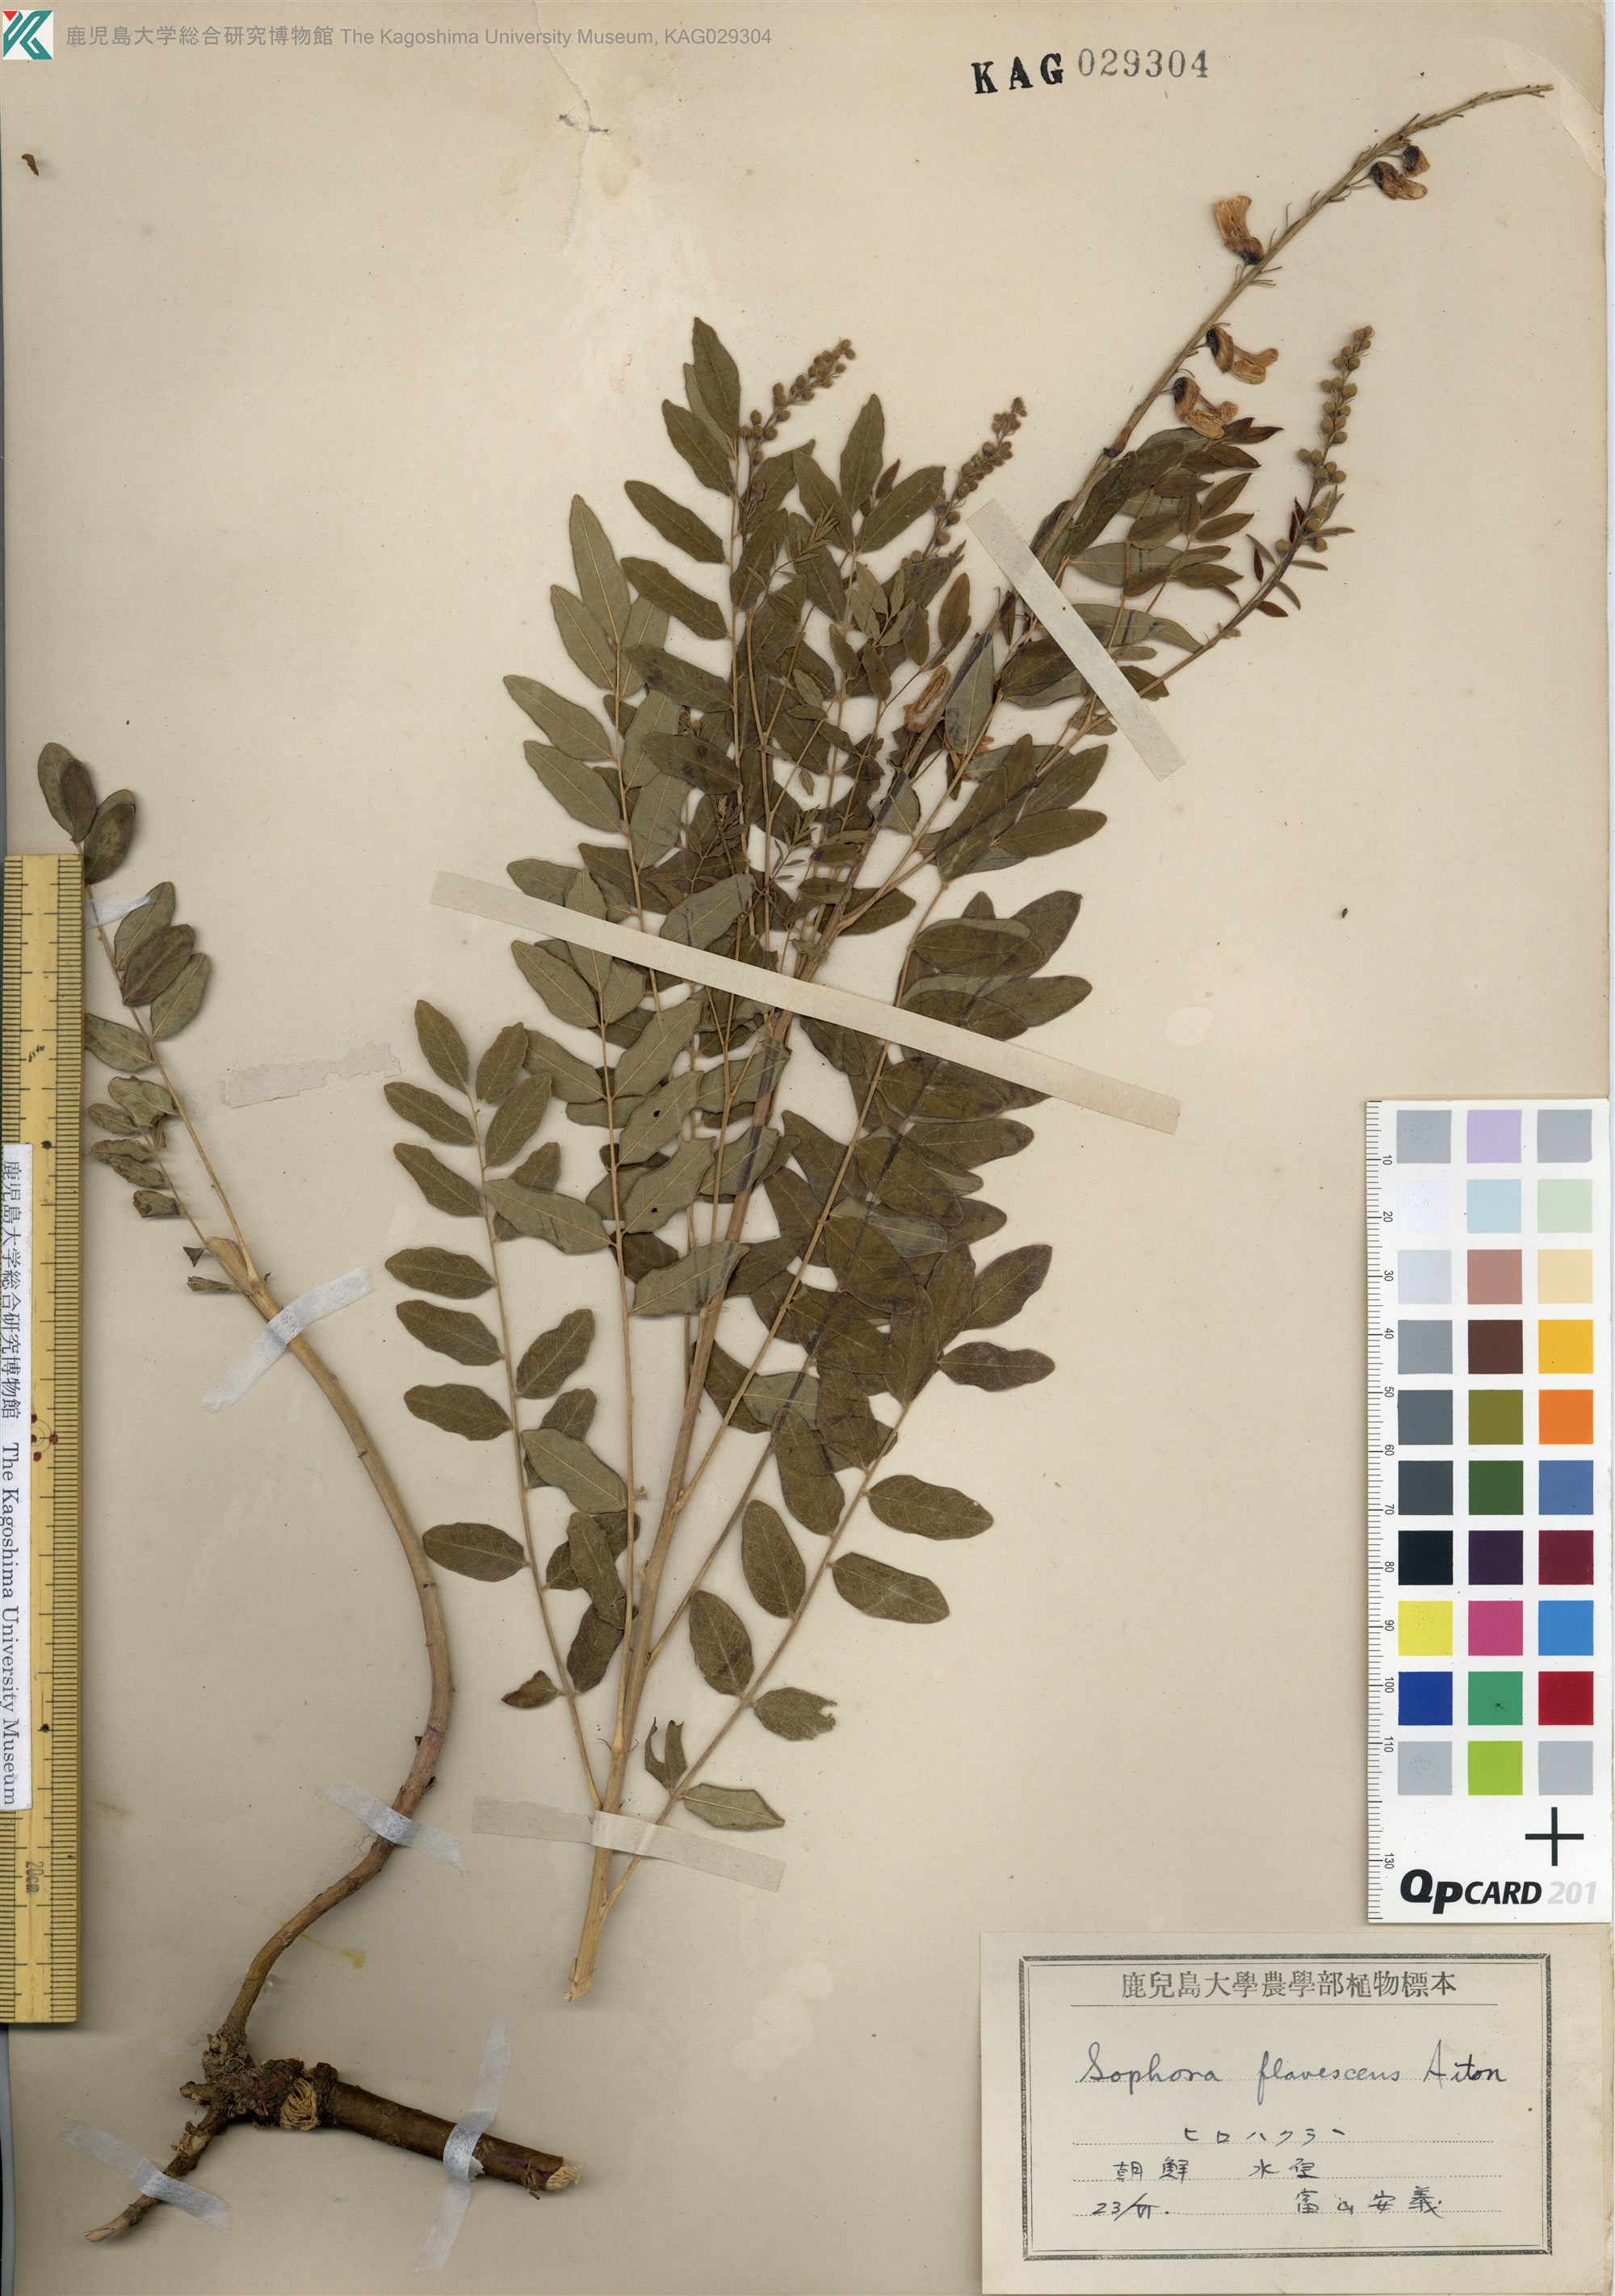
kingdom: Plantae
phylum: Tracheophyta
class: Magnoliopsida
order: Fabales
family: Fabaceae
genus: Sophora
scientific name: Sophora flavescens
